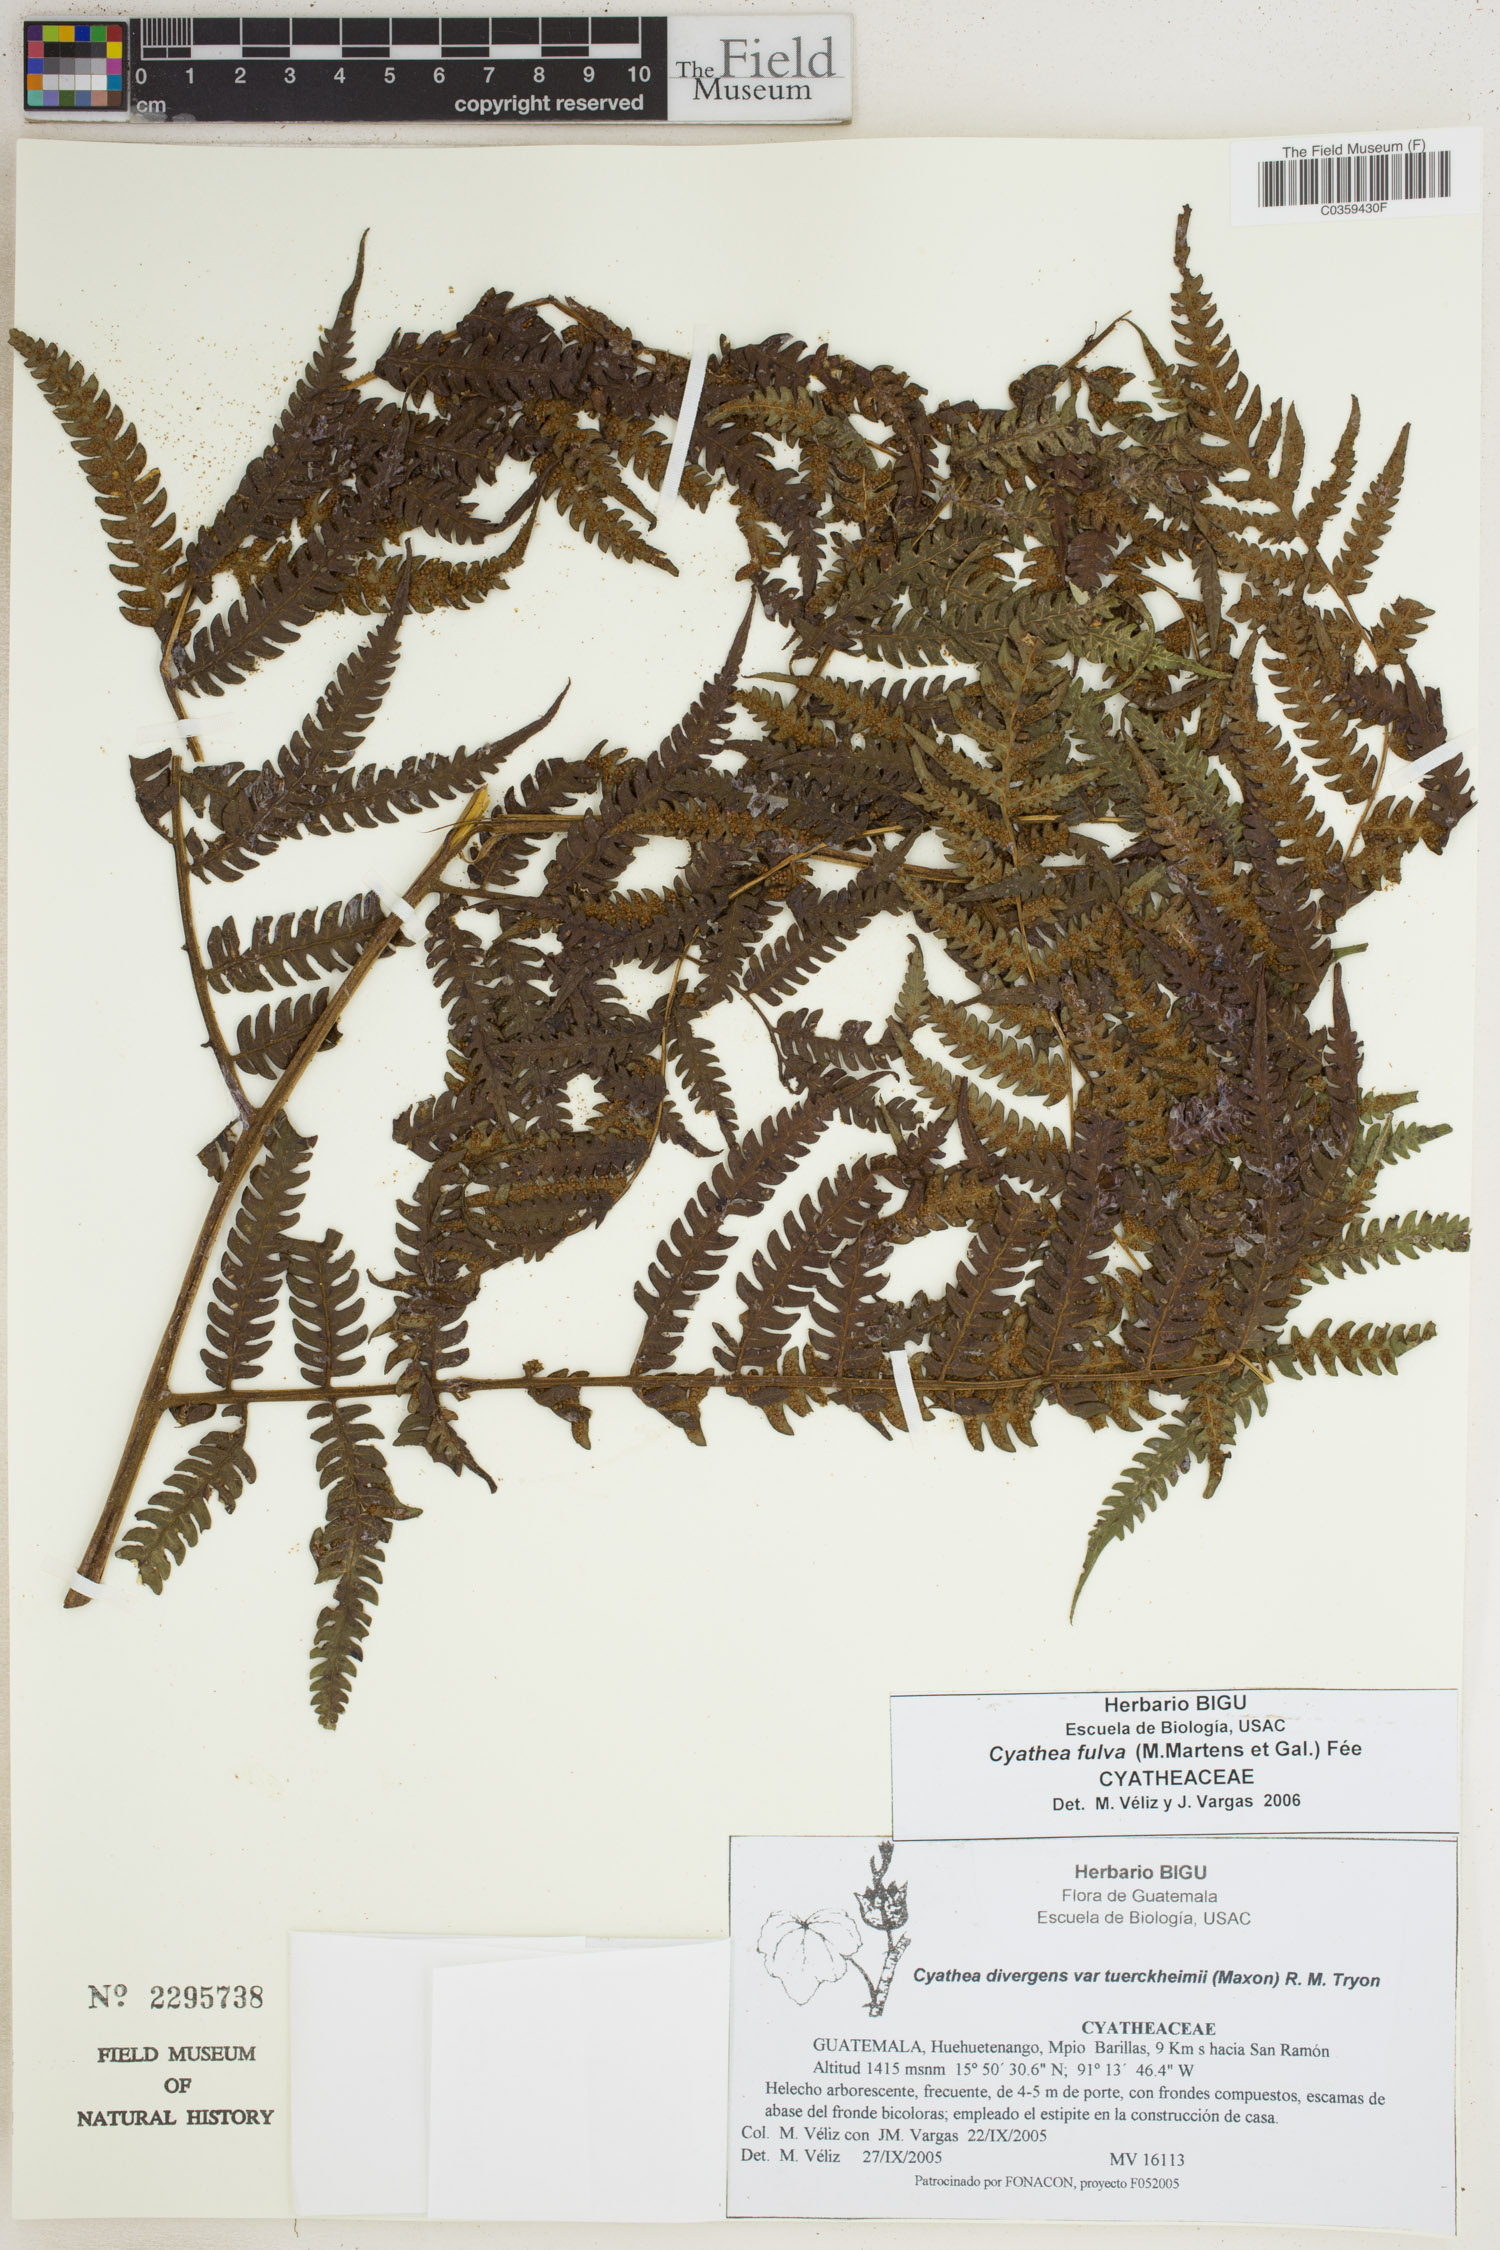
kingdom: Plantae
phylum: Tracheophyta
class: Polypodiopsida
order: Cyatheales
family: Cyatheaceae
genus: Cyathea
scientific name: Cyathea fulva
